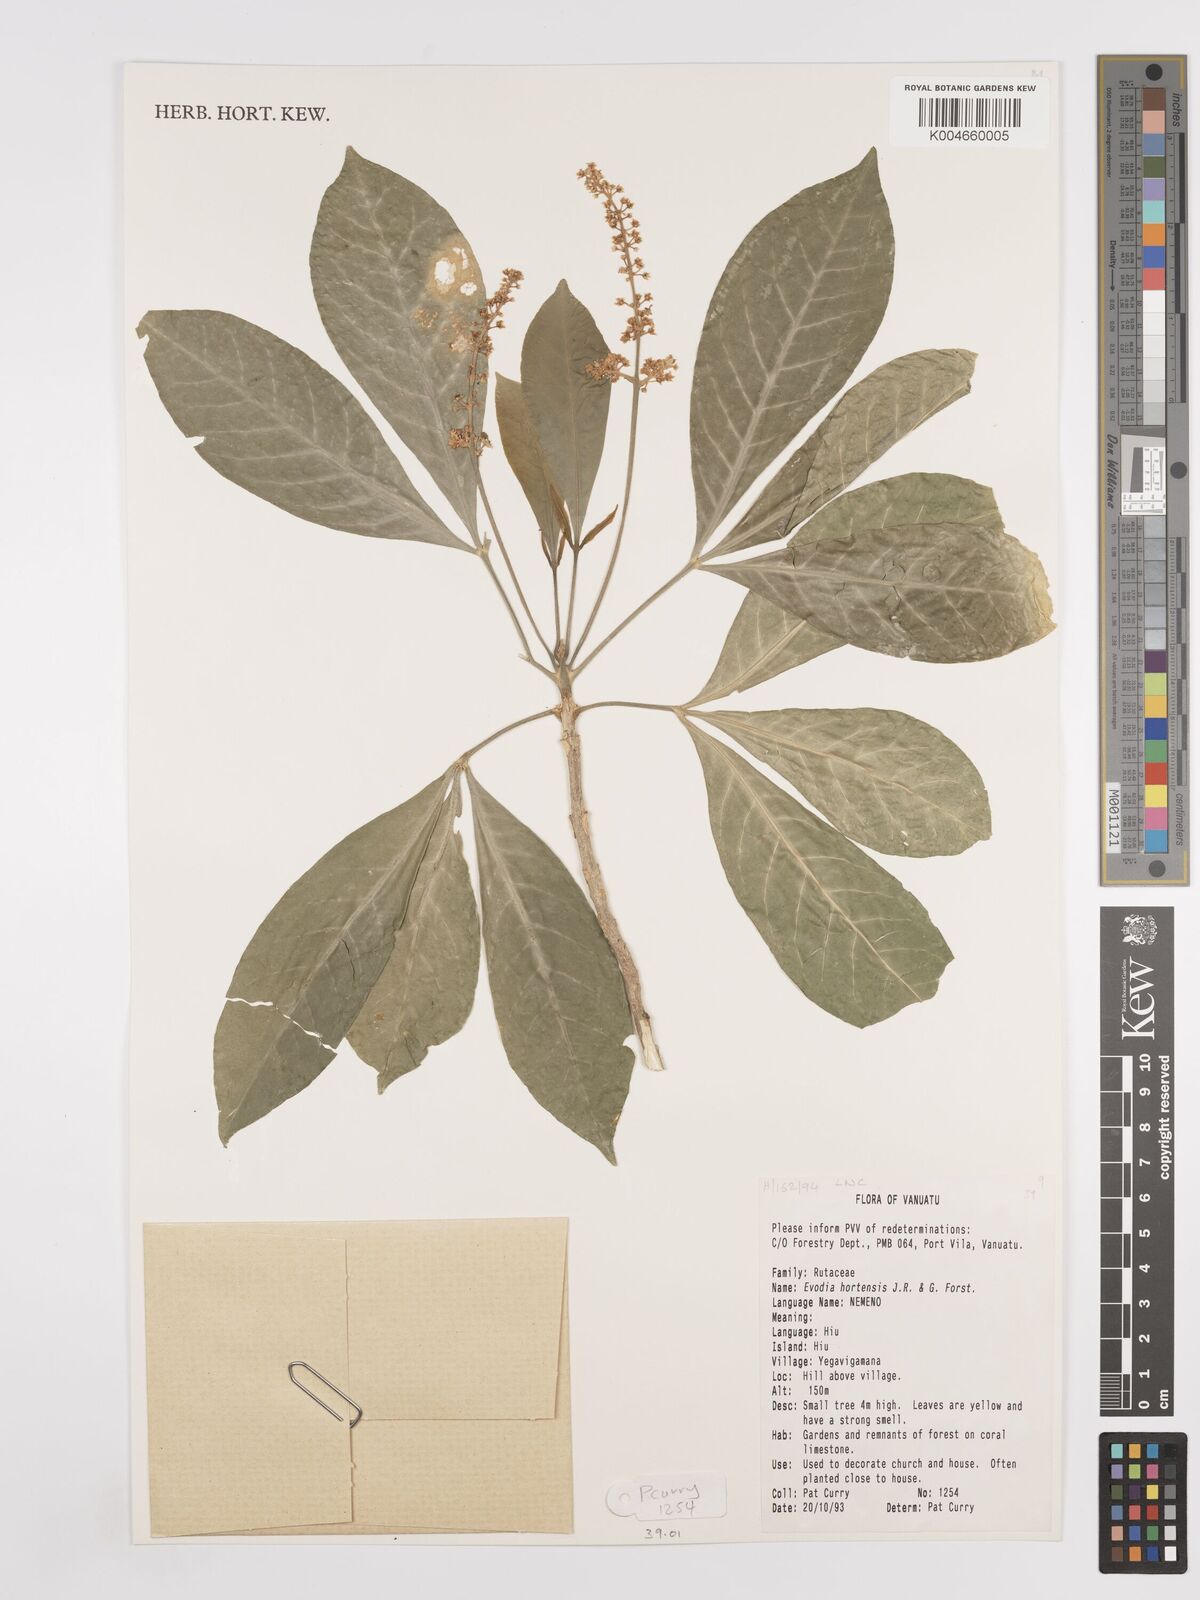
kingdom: Plantae
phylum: Tracheophyta
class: Magnoliopsida
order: Sapindales
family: Rutaceae
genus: Euodia
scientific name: Euodia hortensis
